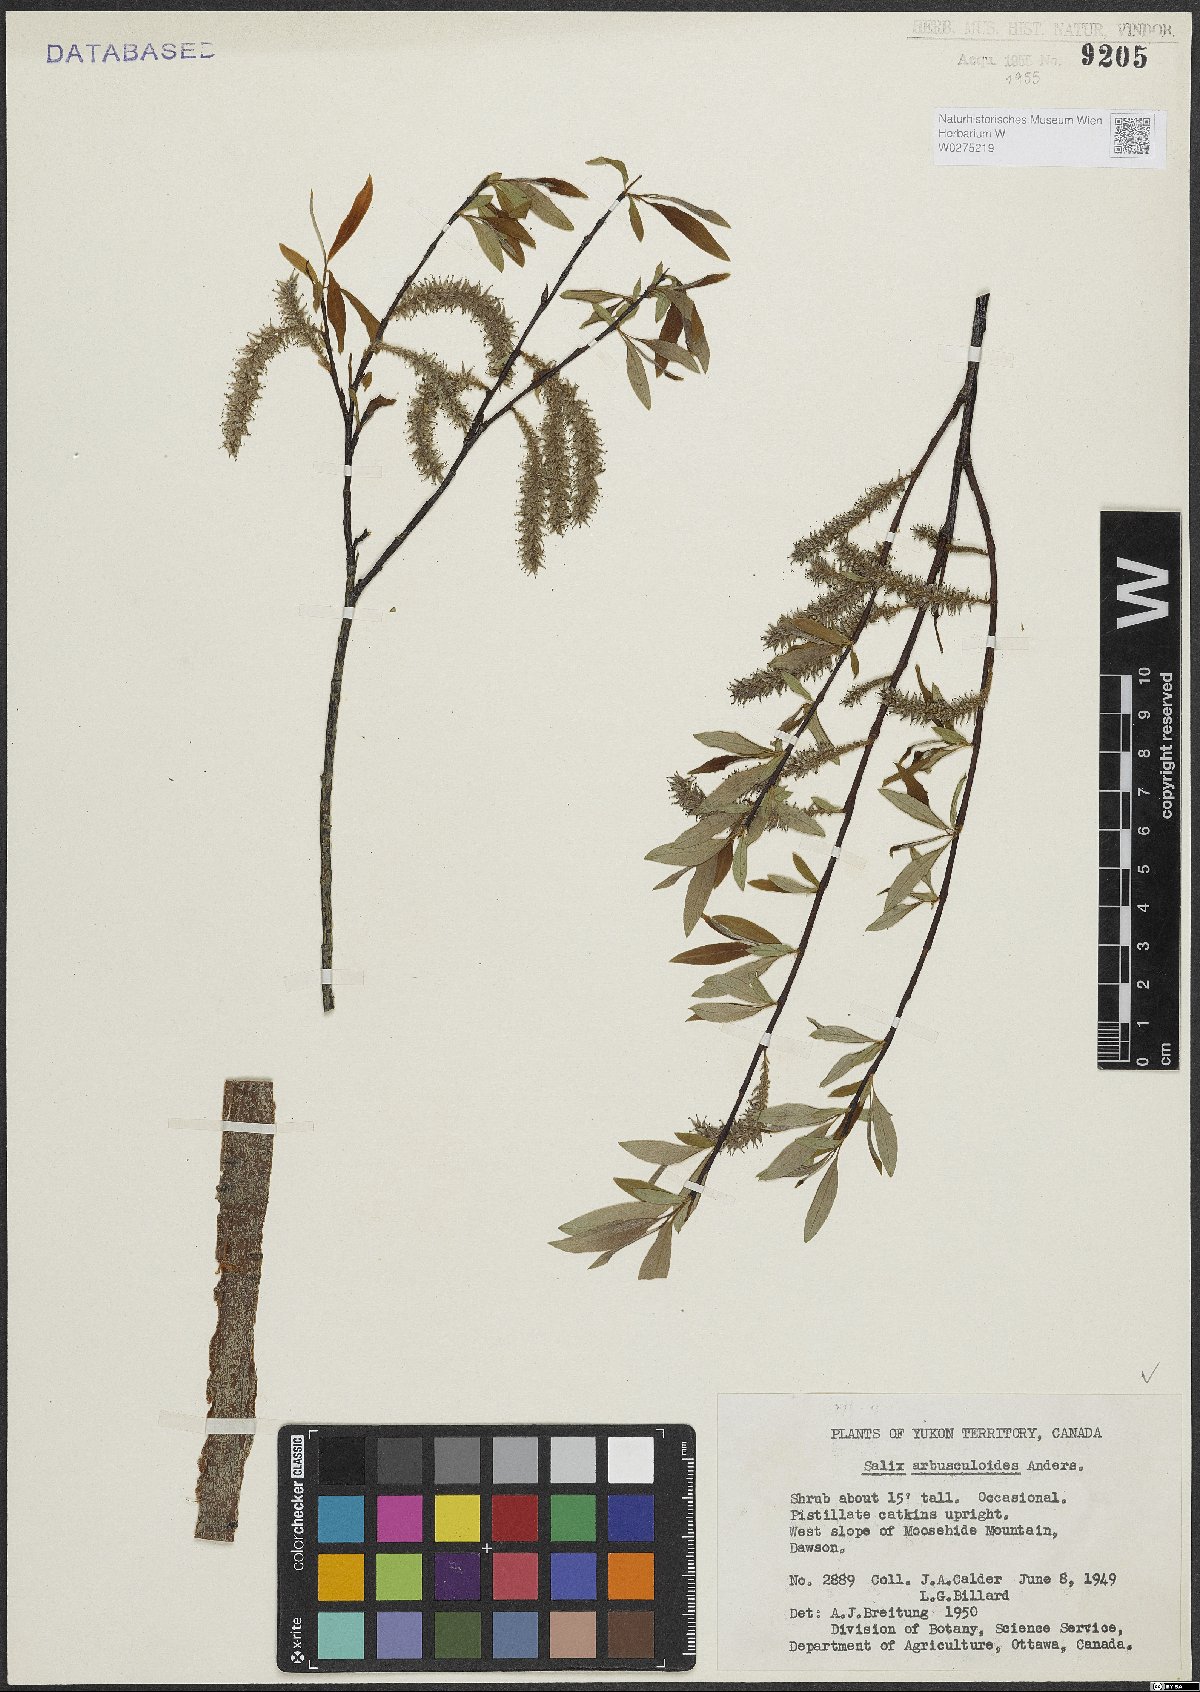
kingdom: Plantae
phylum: Tracheophyta
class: Magnoliopsida
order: Malpighiales
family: Salicaceae
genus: Salix
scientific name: Salix arbusculoides
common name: Little-tree willow
